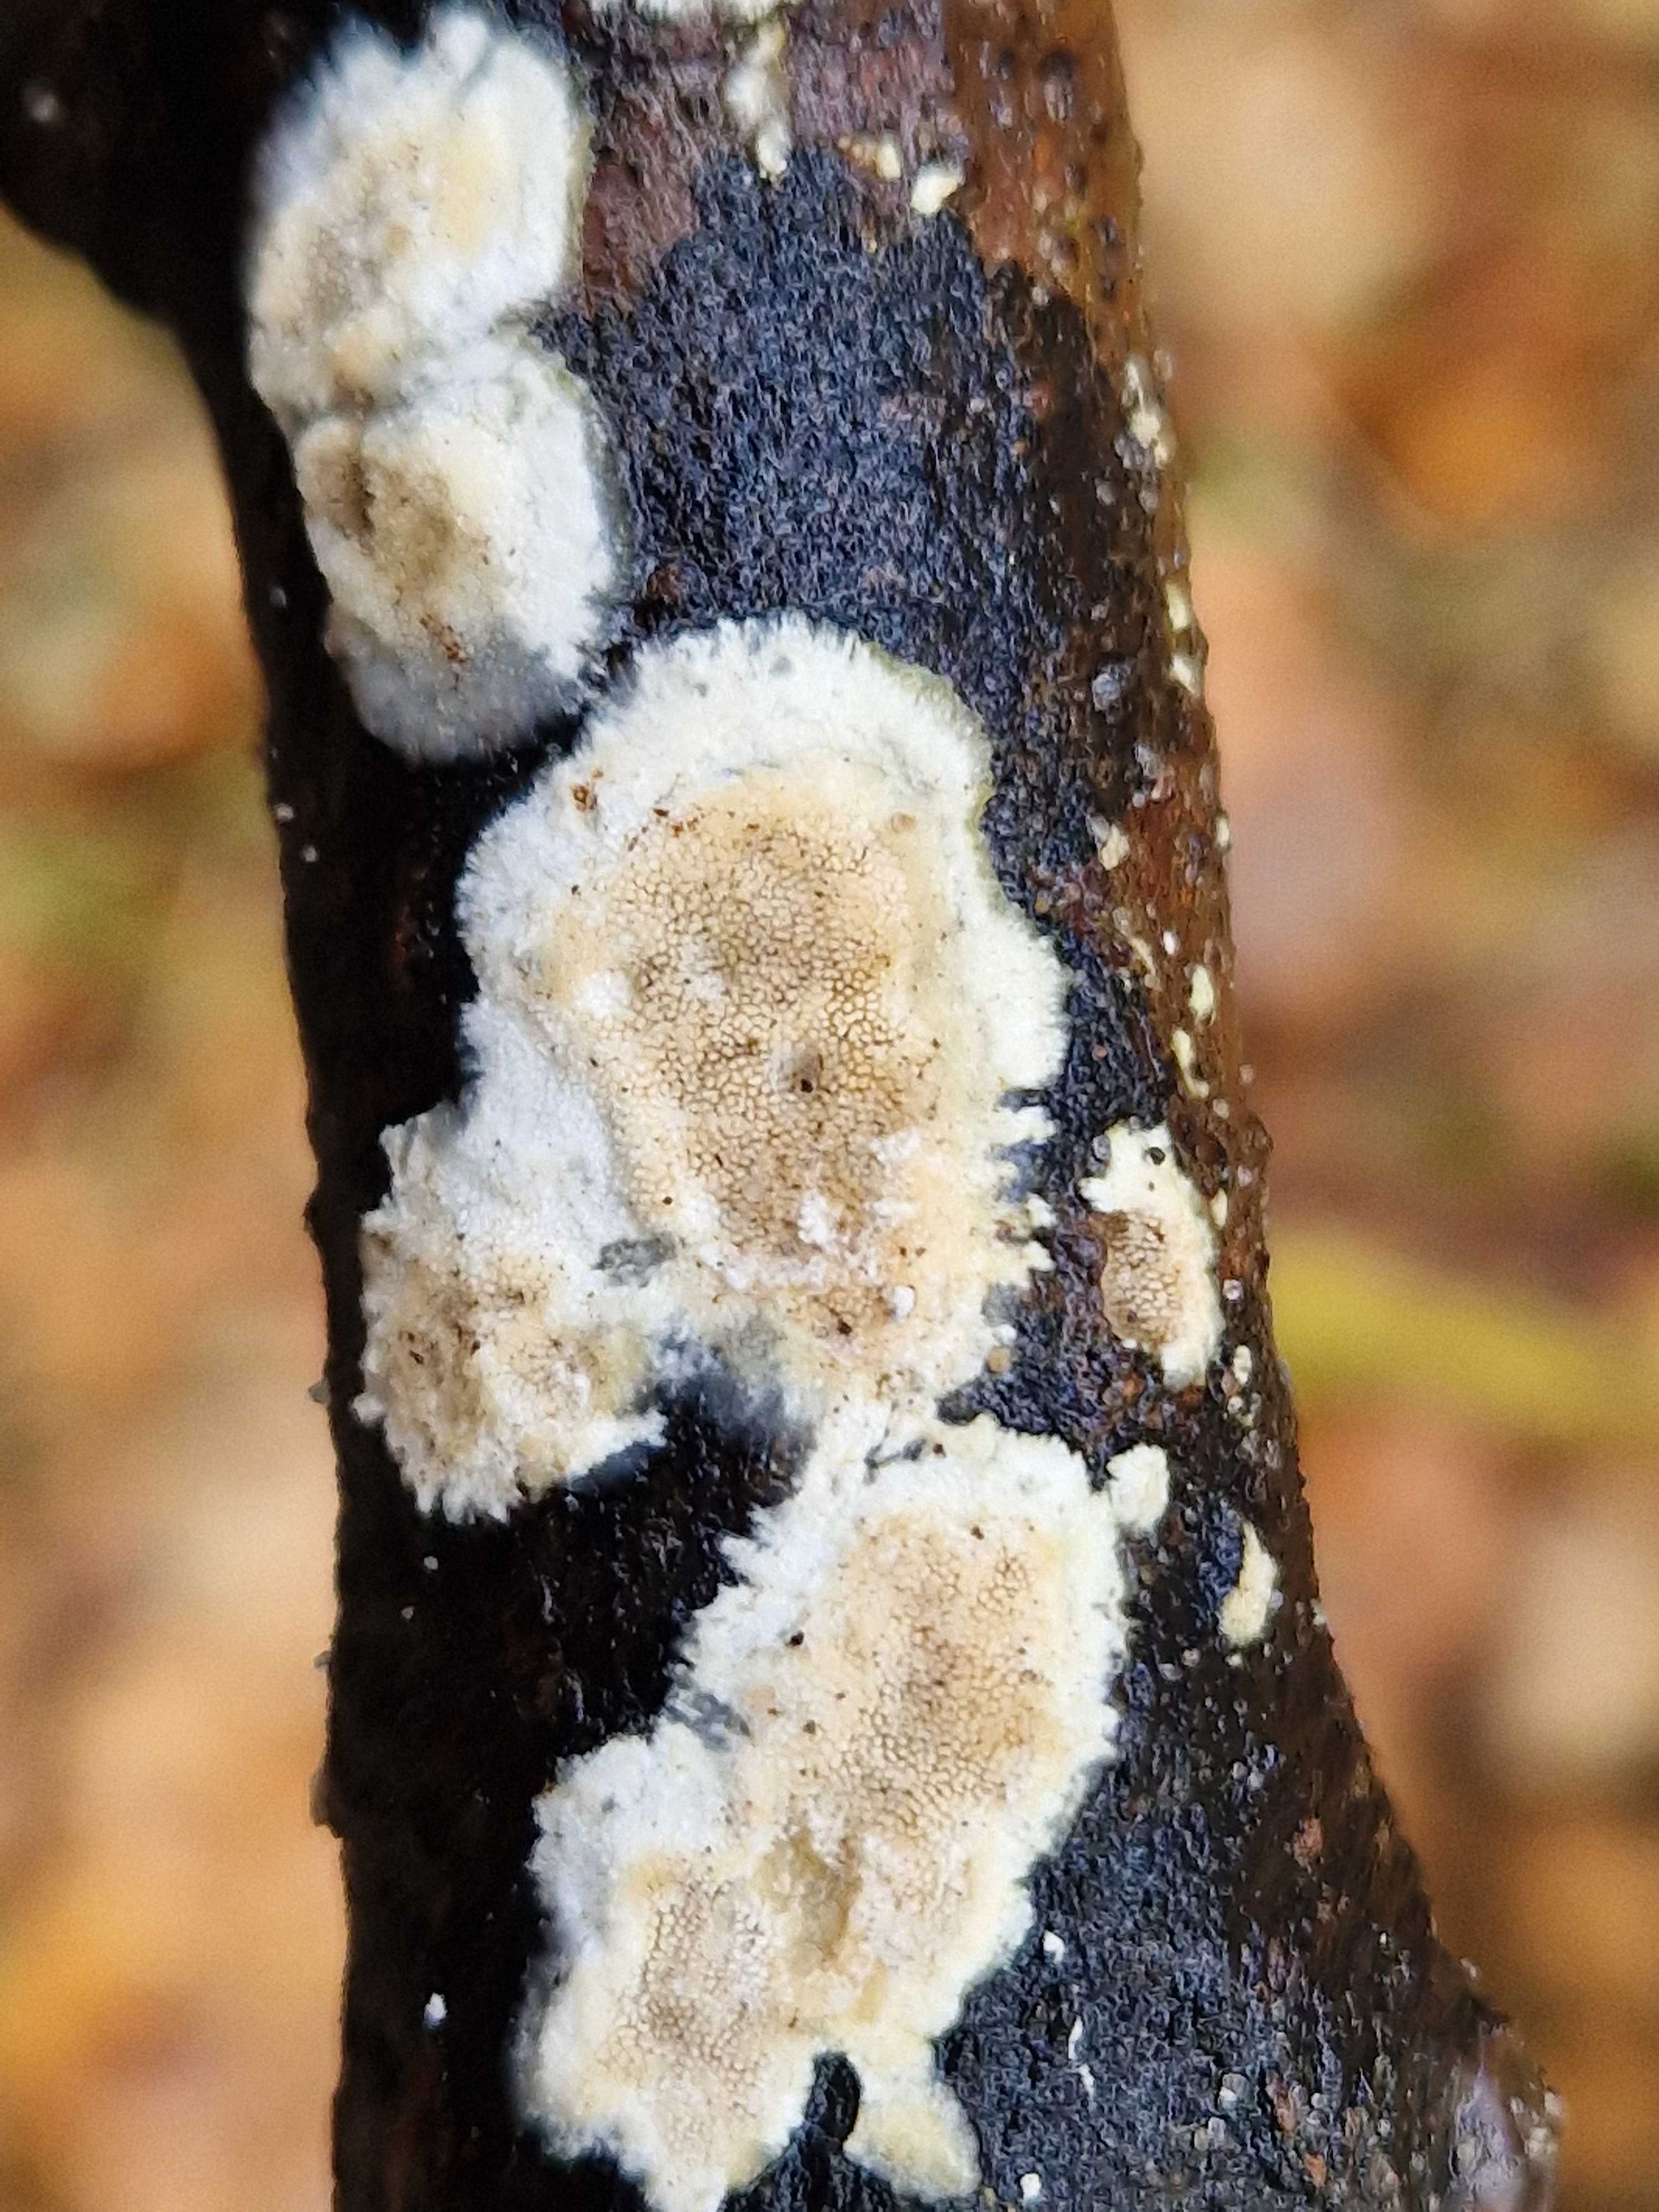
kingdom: Fungi
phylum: Basidiomycota
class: Agaricomycetes
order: Polyporales
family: Steccherinaceae
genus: Steccherinum
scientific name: Steccherinum
